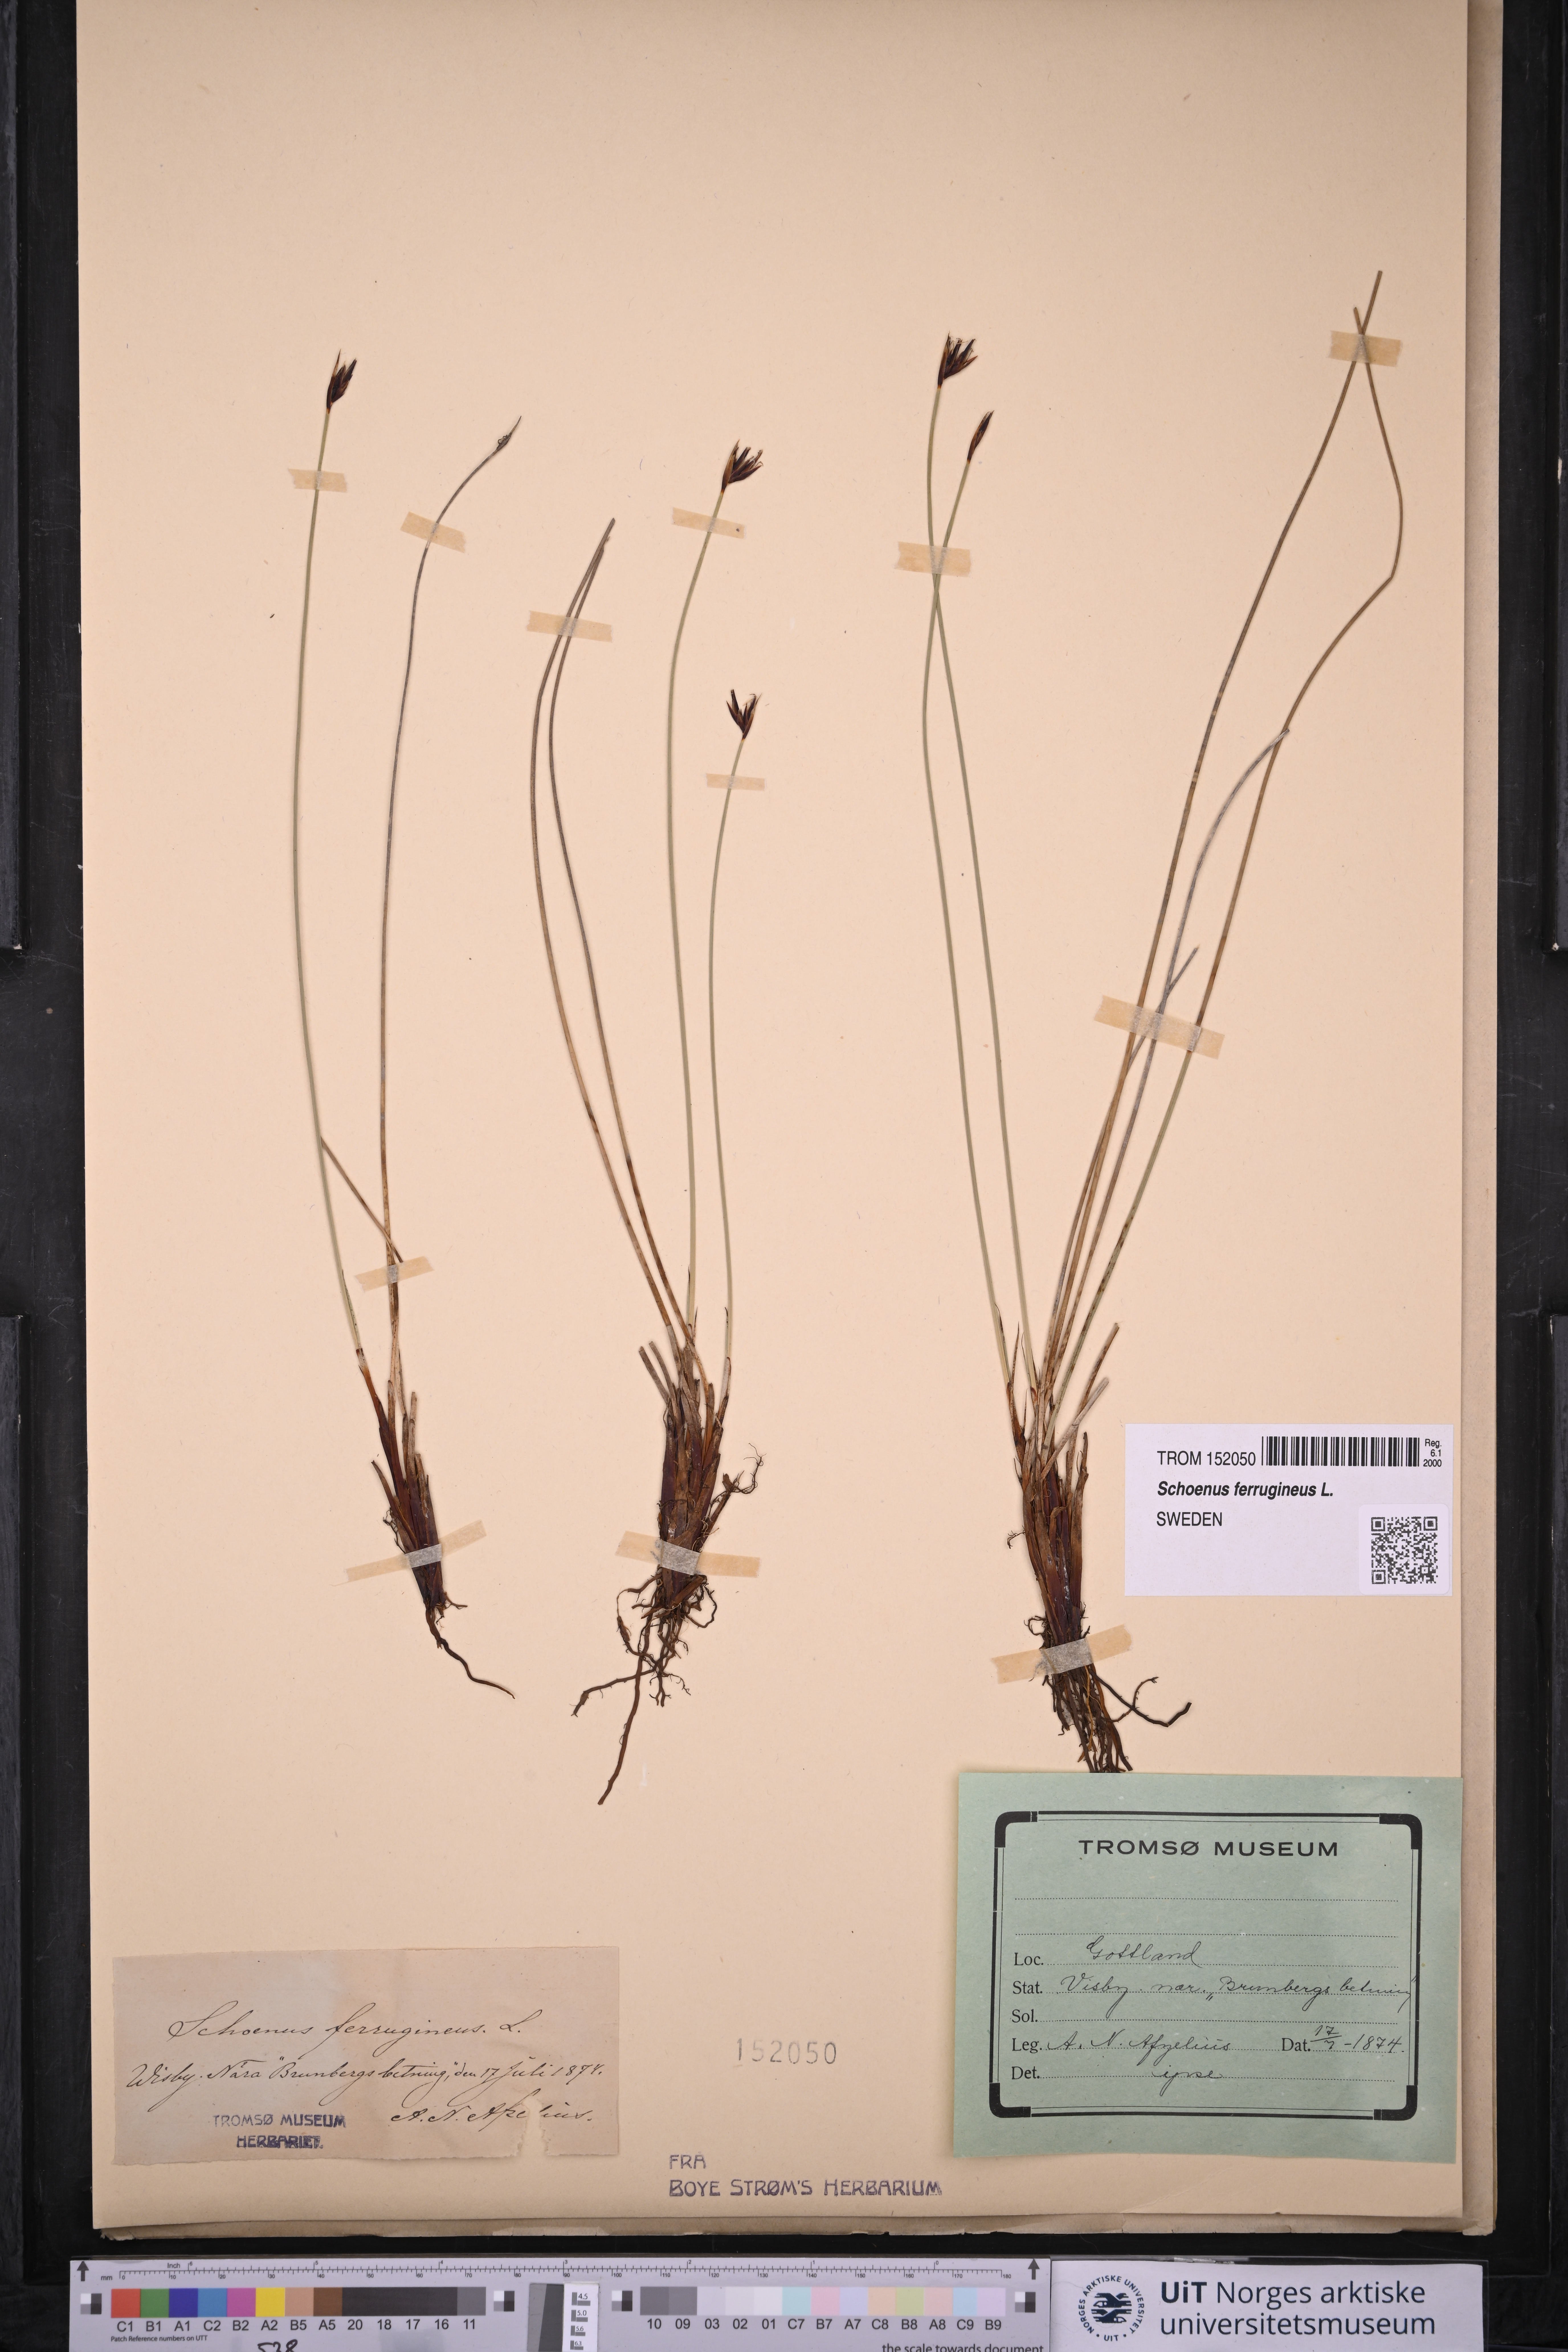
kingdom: Plantae
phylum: Tracheophyta
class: Liliopsida
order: Poales
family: Cyperaceae
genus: Schoenus
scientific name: Schoenus ferrugineus
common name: Brown bog-rush
